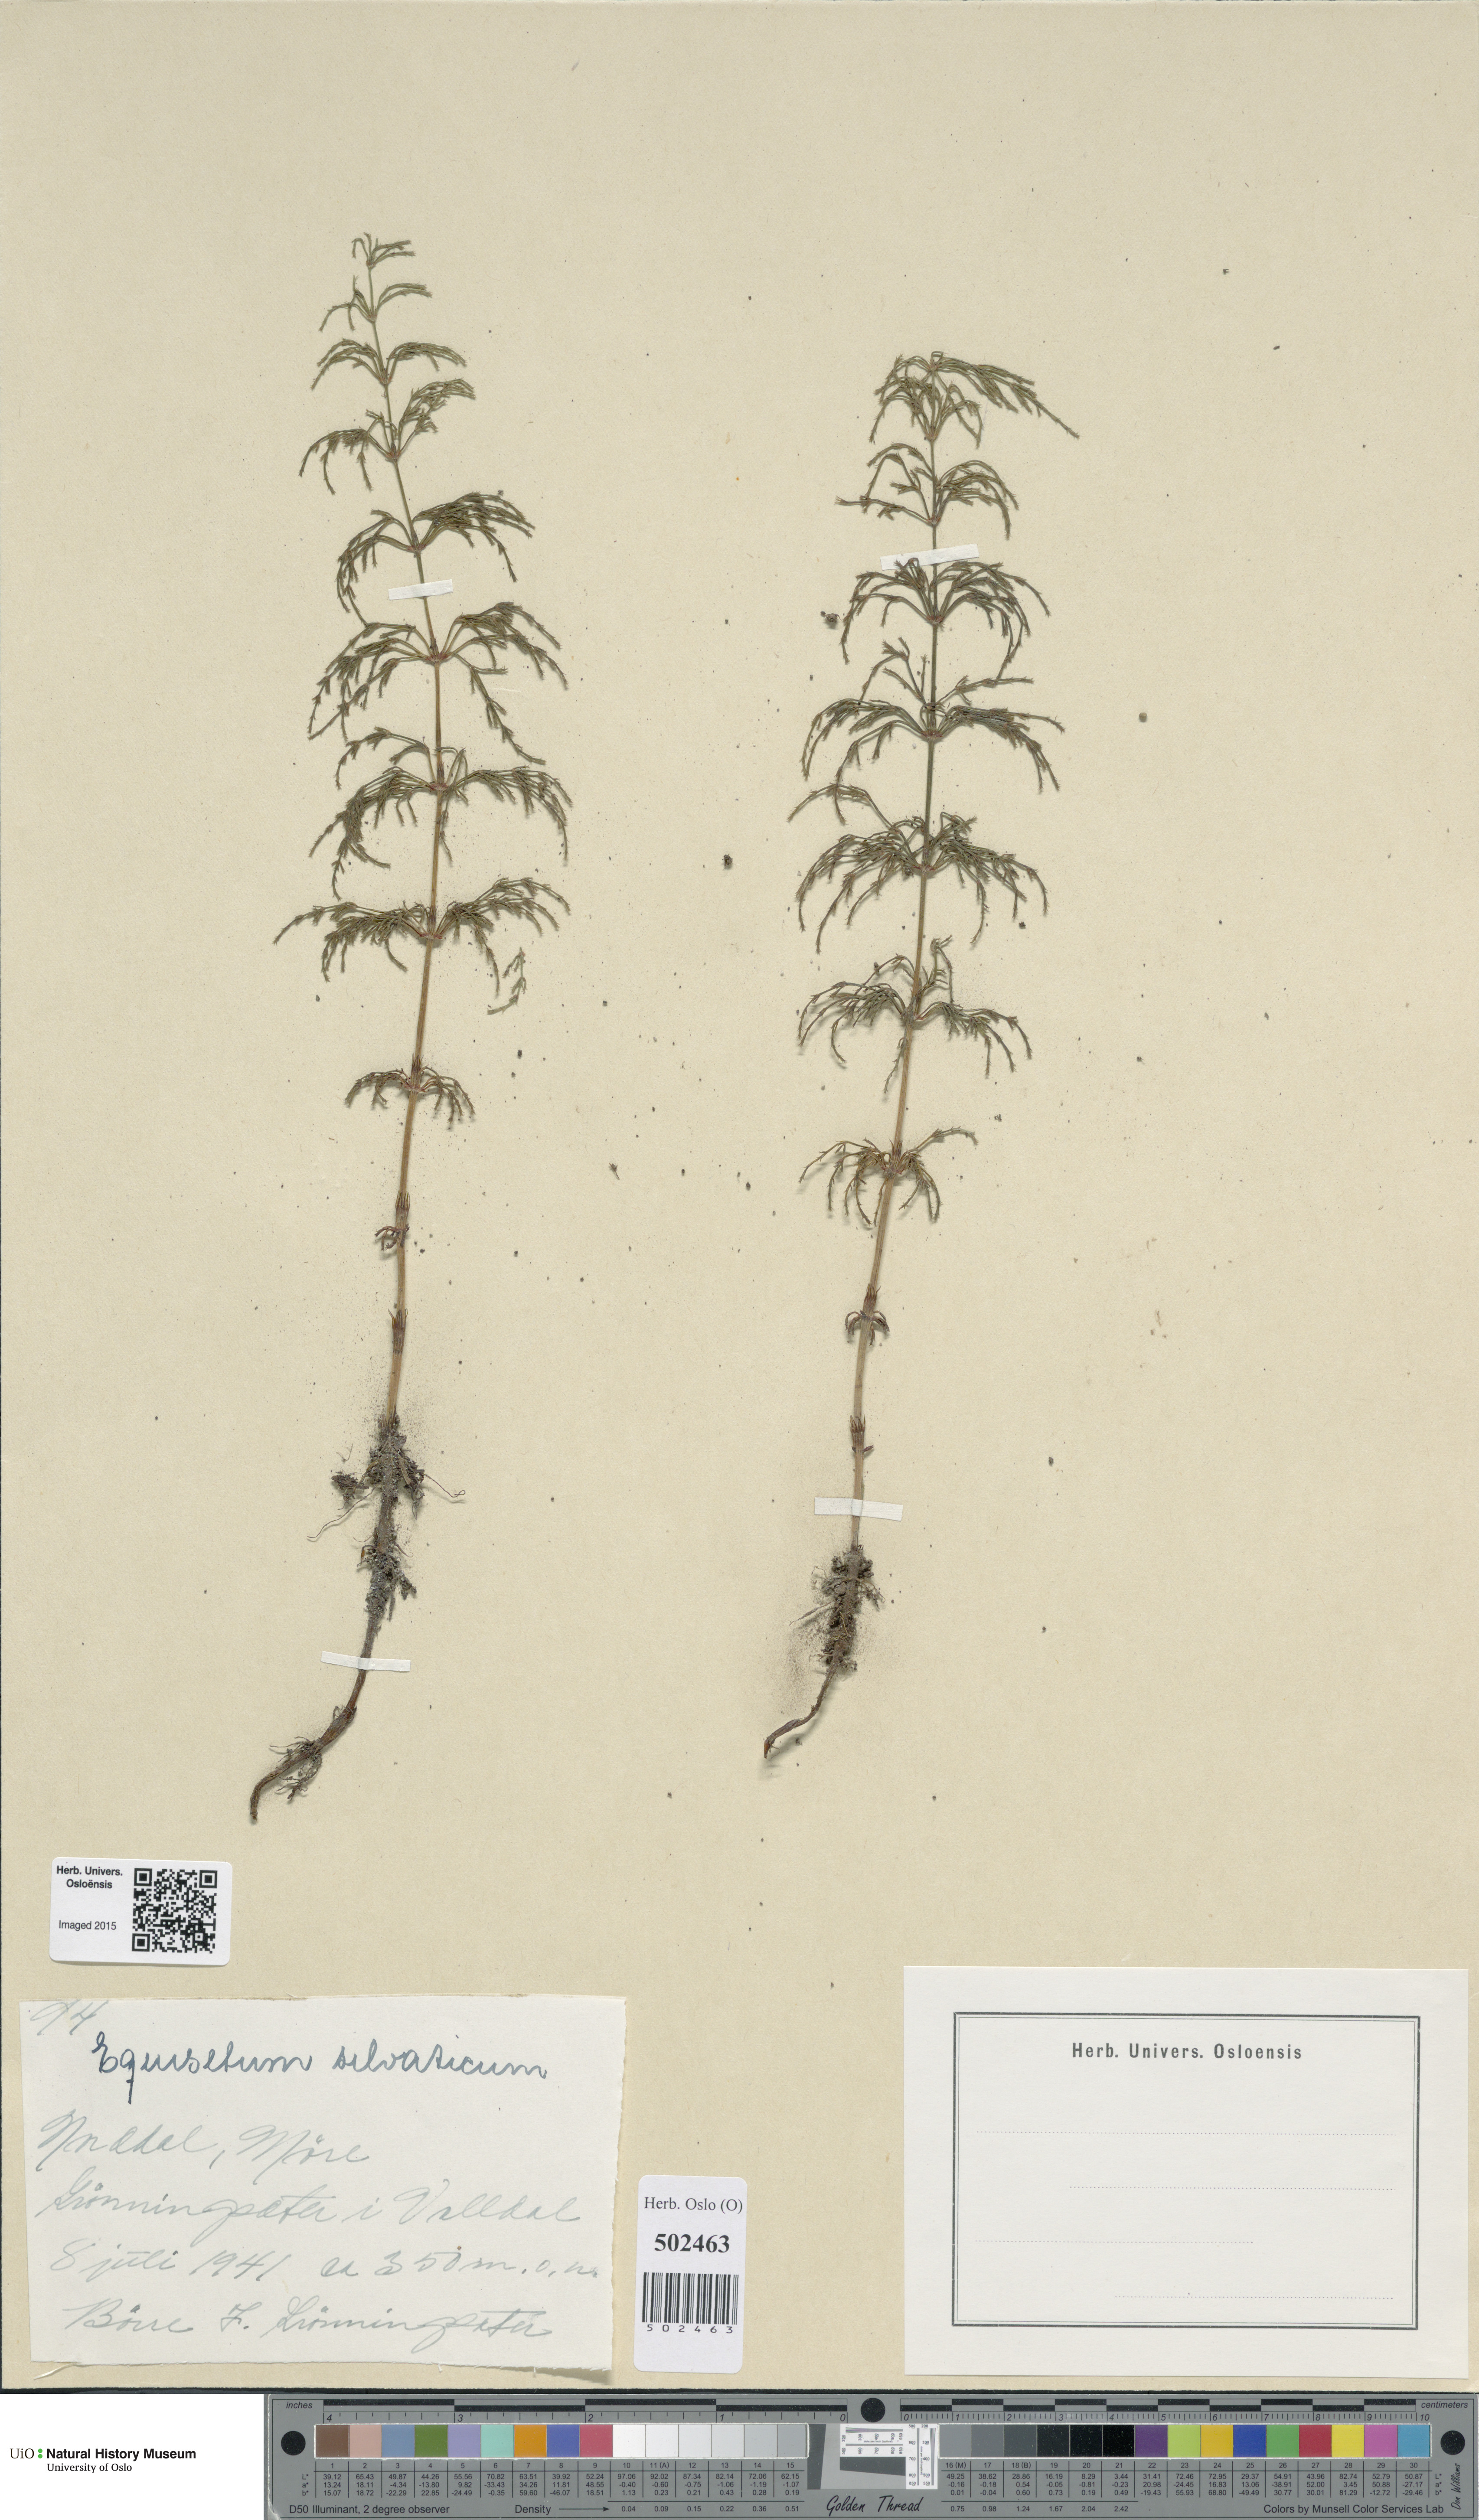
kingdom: Plantae
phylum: Tracheophyta
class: Polypodiopsida
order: Equisetales
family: Equisetaceae
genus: Equisetum
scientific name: Equisetum sylvaticum
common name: Wood horsetail
